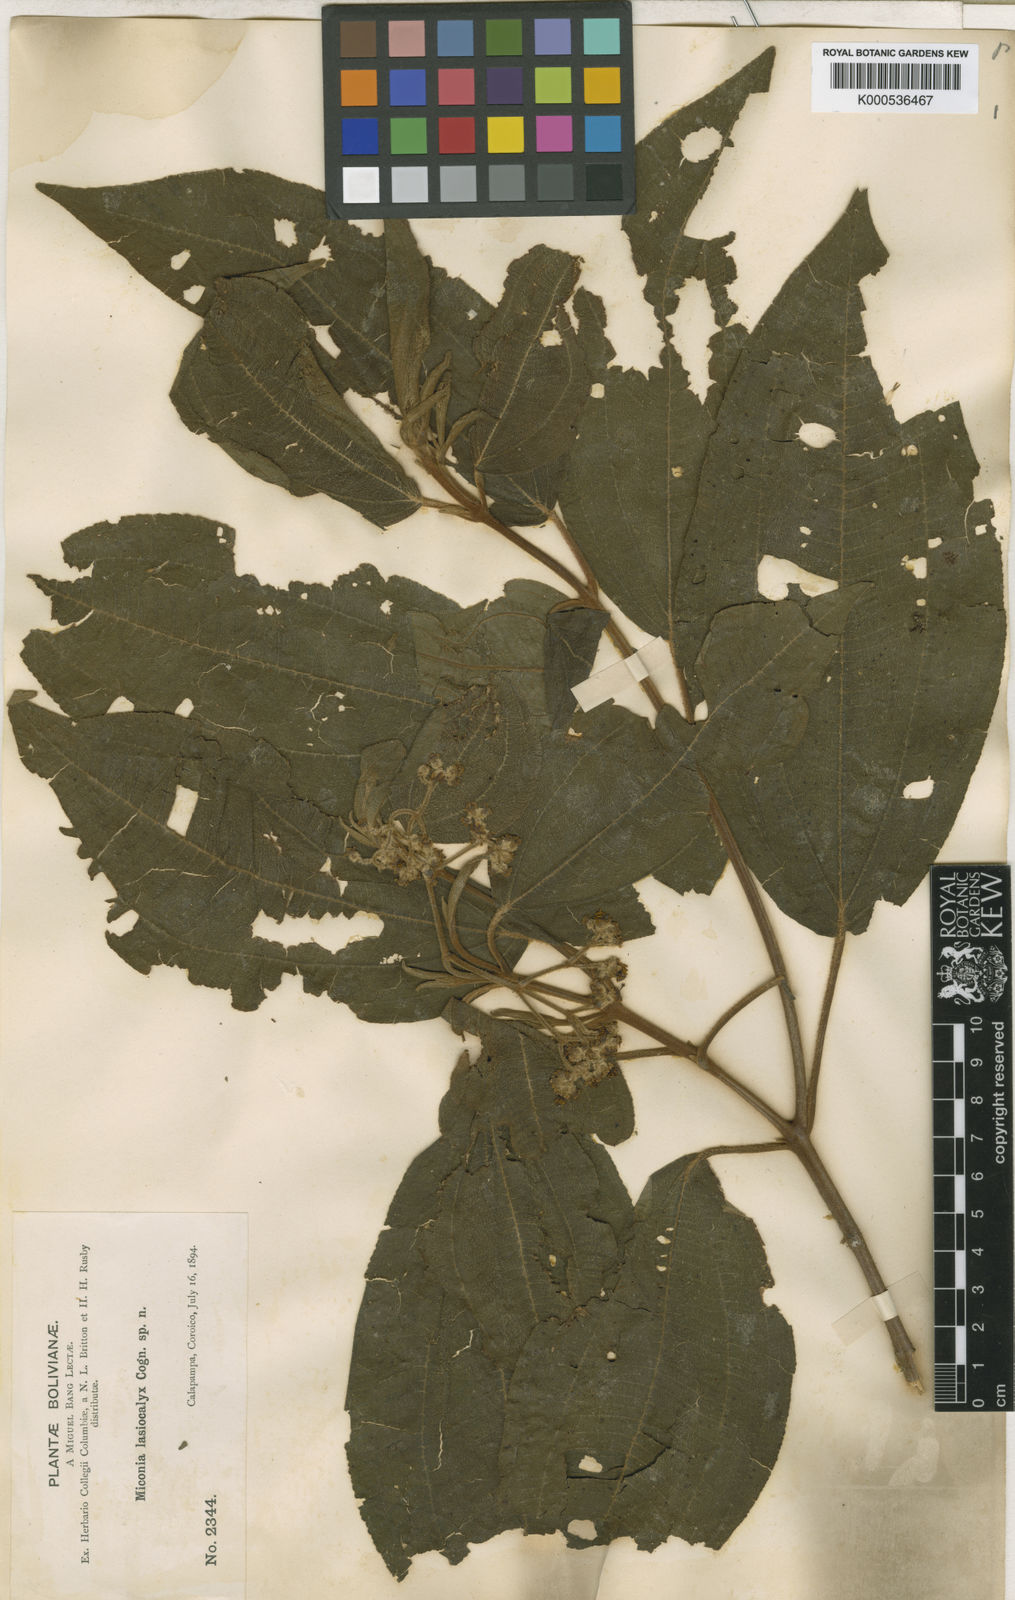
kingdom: Plantae
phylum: Tracheophyta
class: Magnoliopsida
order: Myrtales
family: Melastomataceae
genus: Miconia
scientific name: Miconia lasiocalyx
